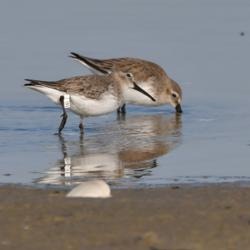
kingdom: Animalia
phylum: Chordata
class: Aves
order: Charadriiformes
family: Scolopacidae
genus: Calidris
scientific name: Calidris alpina
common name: Almindelig ryle
